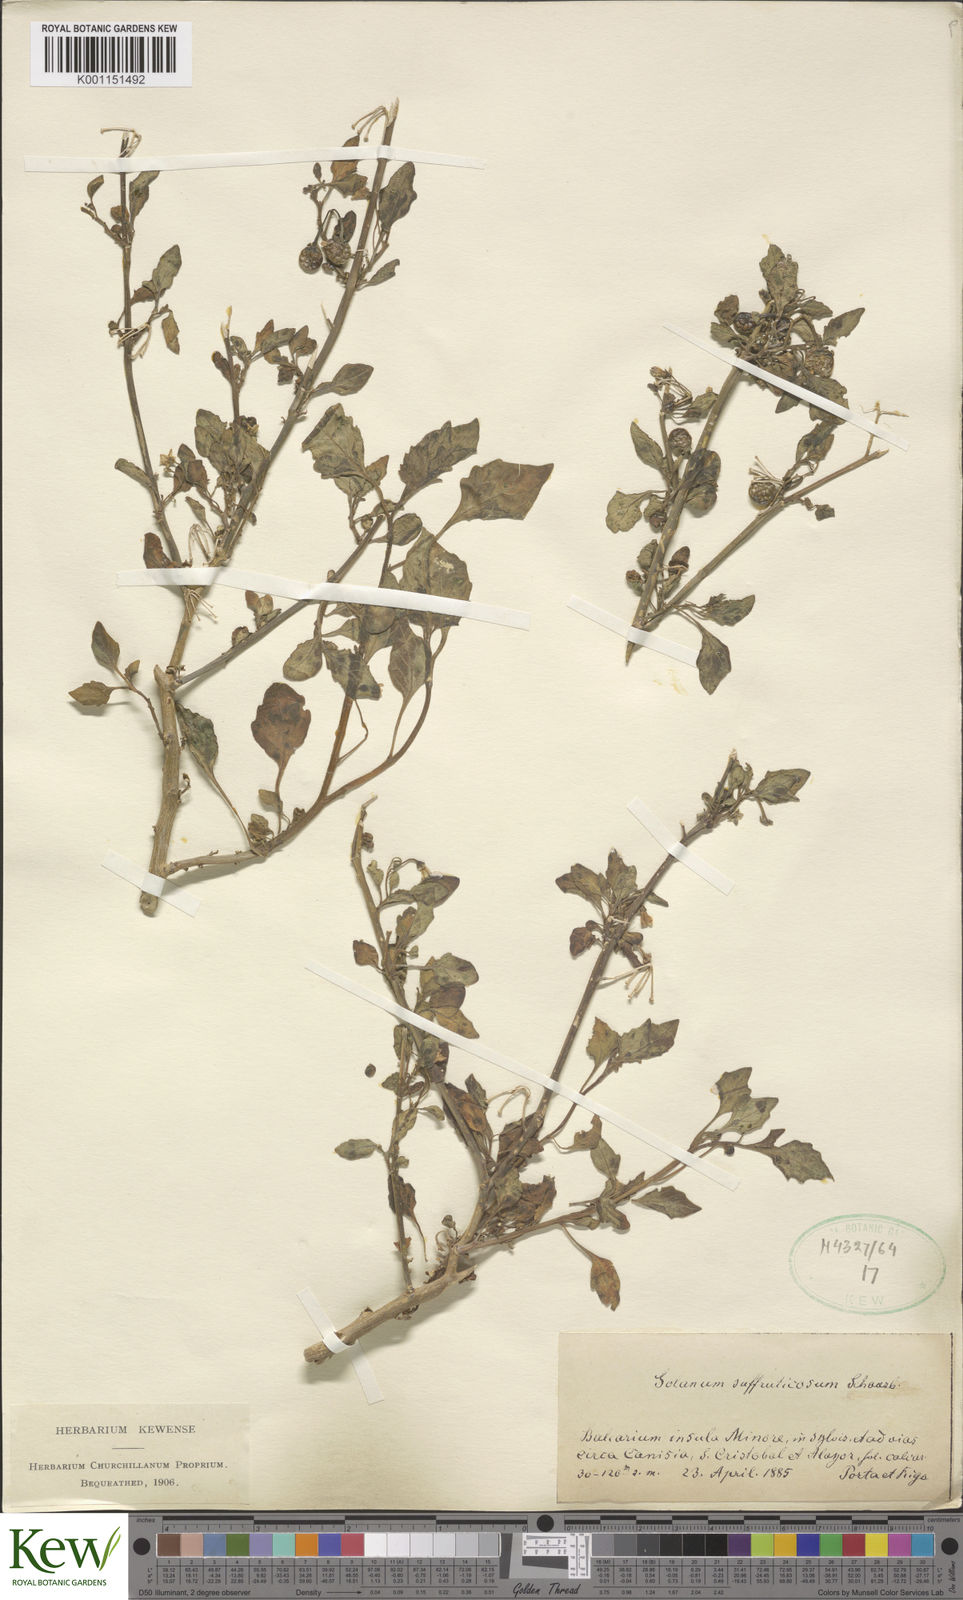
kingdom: Plantae
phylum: Tracheophyta
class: Magnoliopsida
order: Solanales
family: Solanaceae
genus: Solanum
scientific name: Solanum nigrum
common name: Black nightshade
